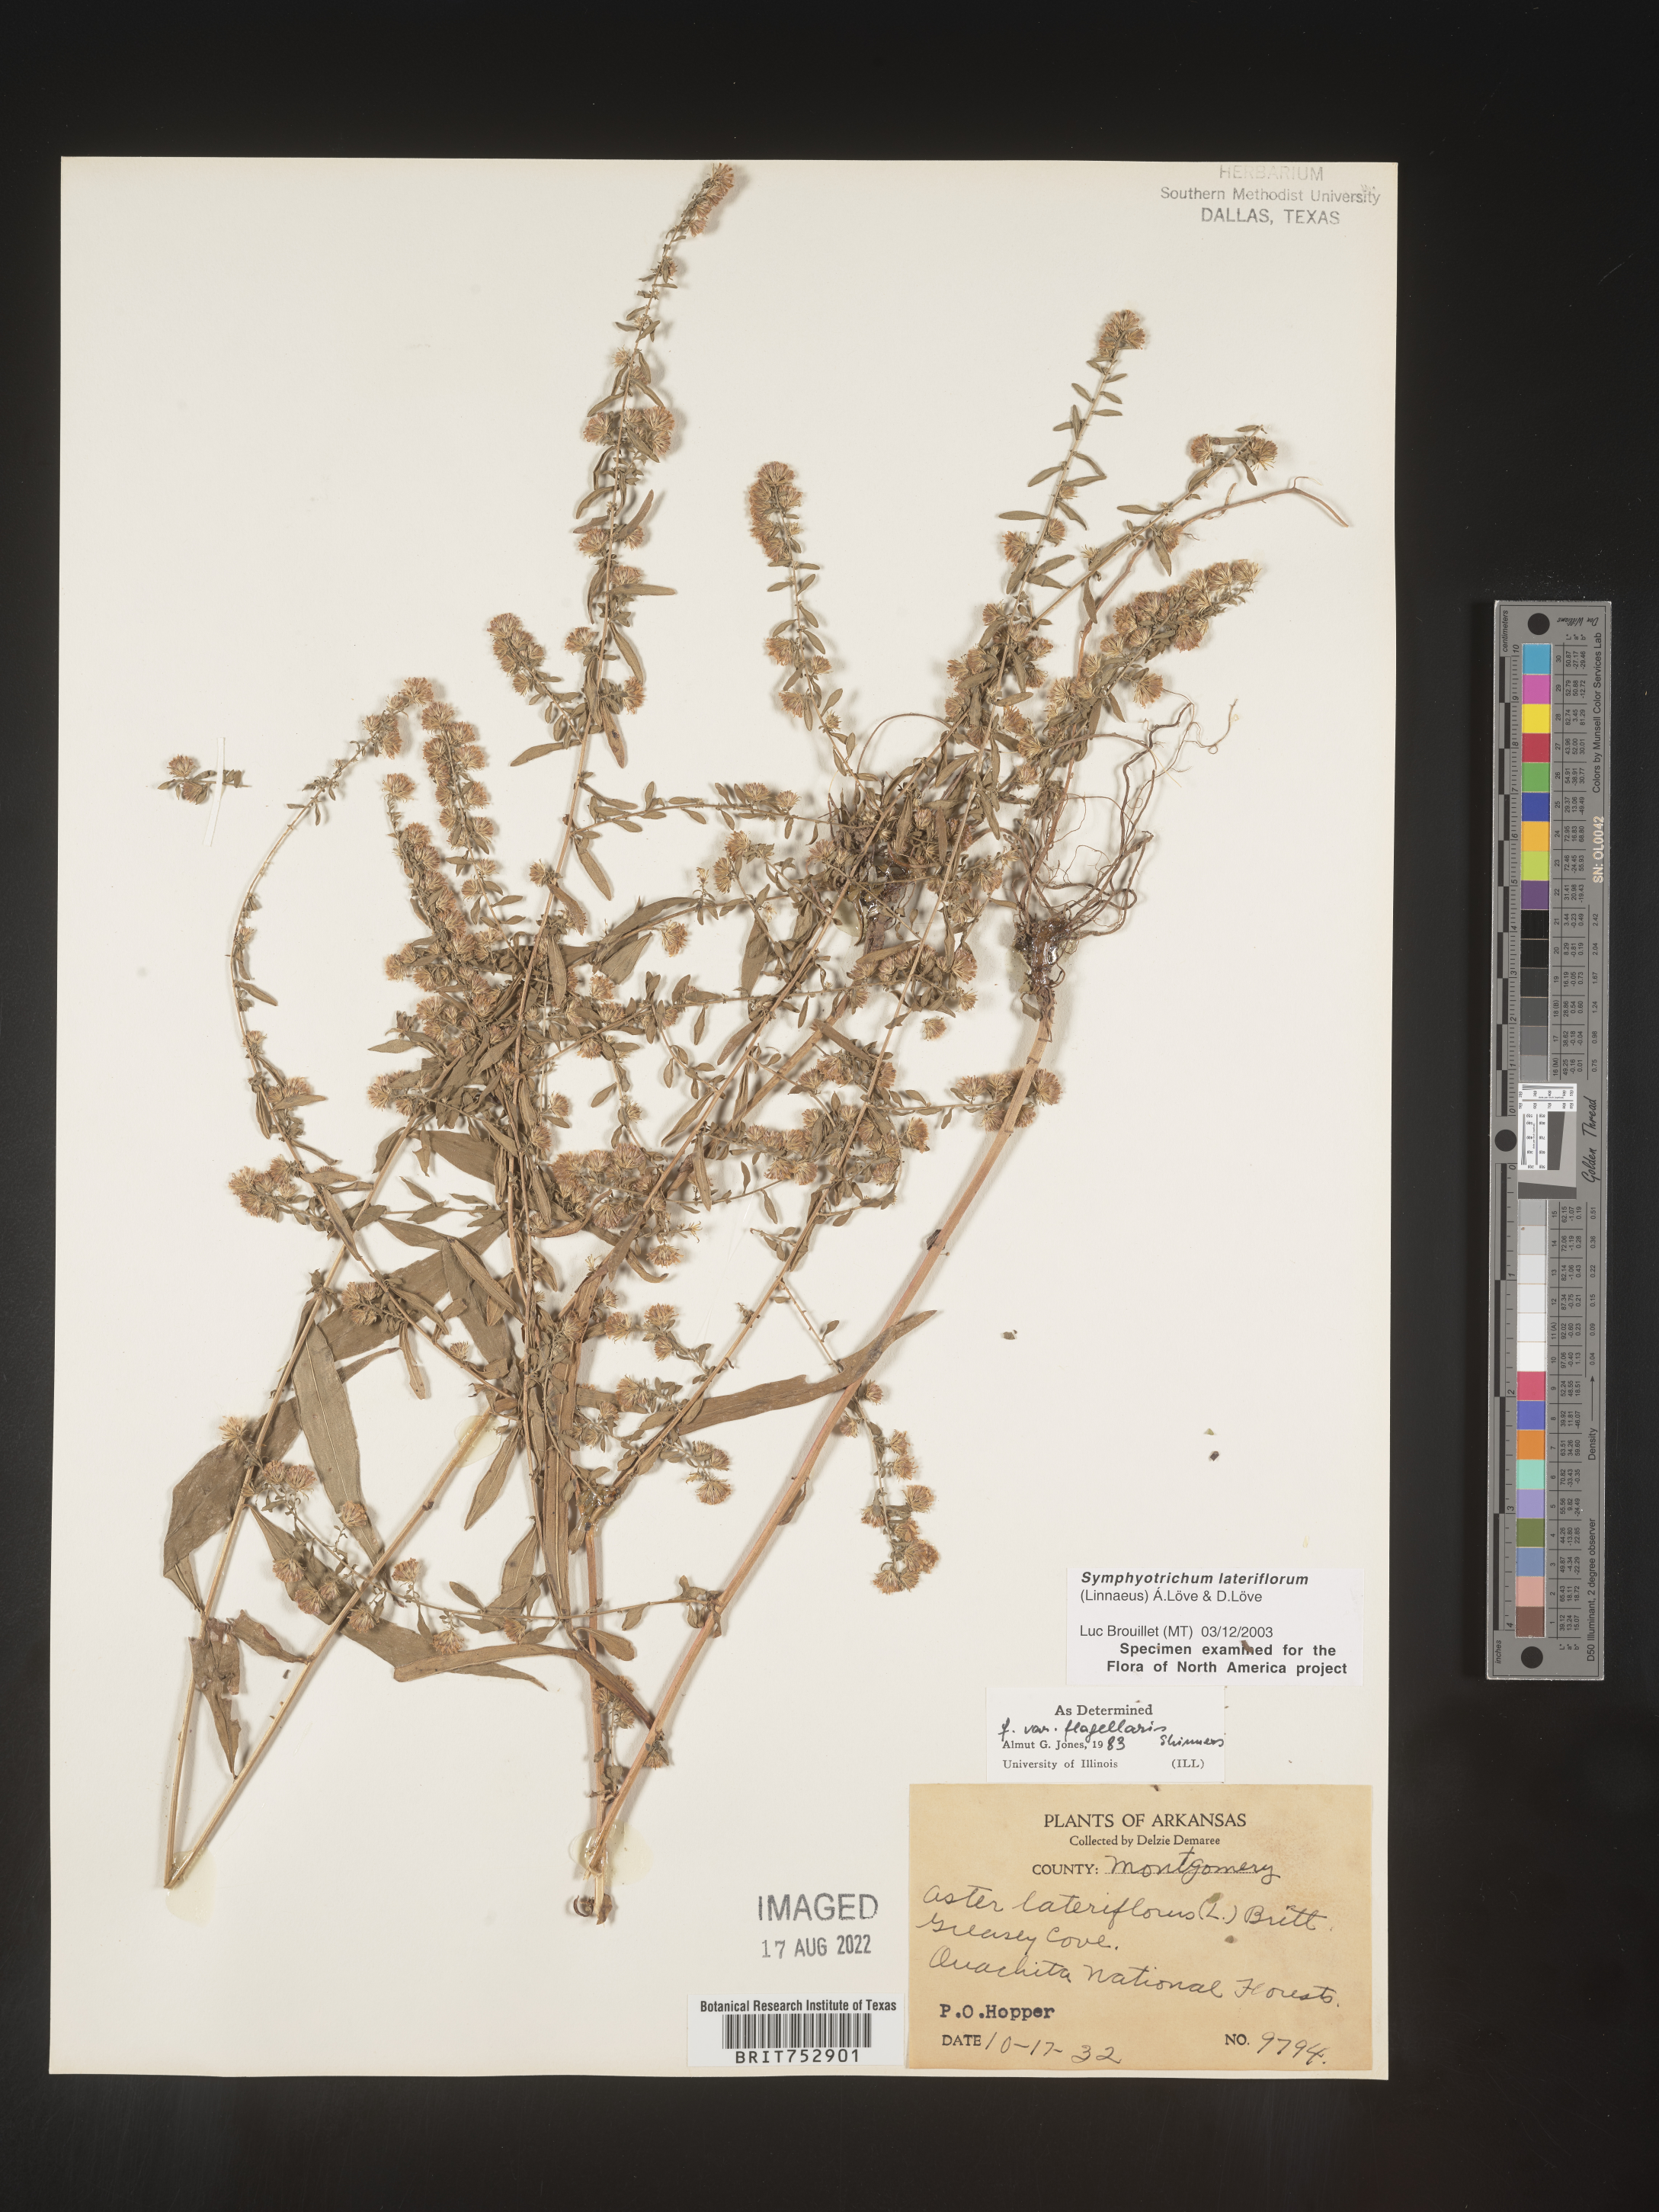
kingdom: Plantae
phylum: Tracheophyta
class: Magnoliopsida
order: Asterales
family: Asteraceae
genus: Symphyotrichum
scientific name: Symphyotrichum lateriflorum
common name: Calico aster
